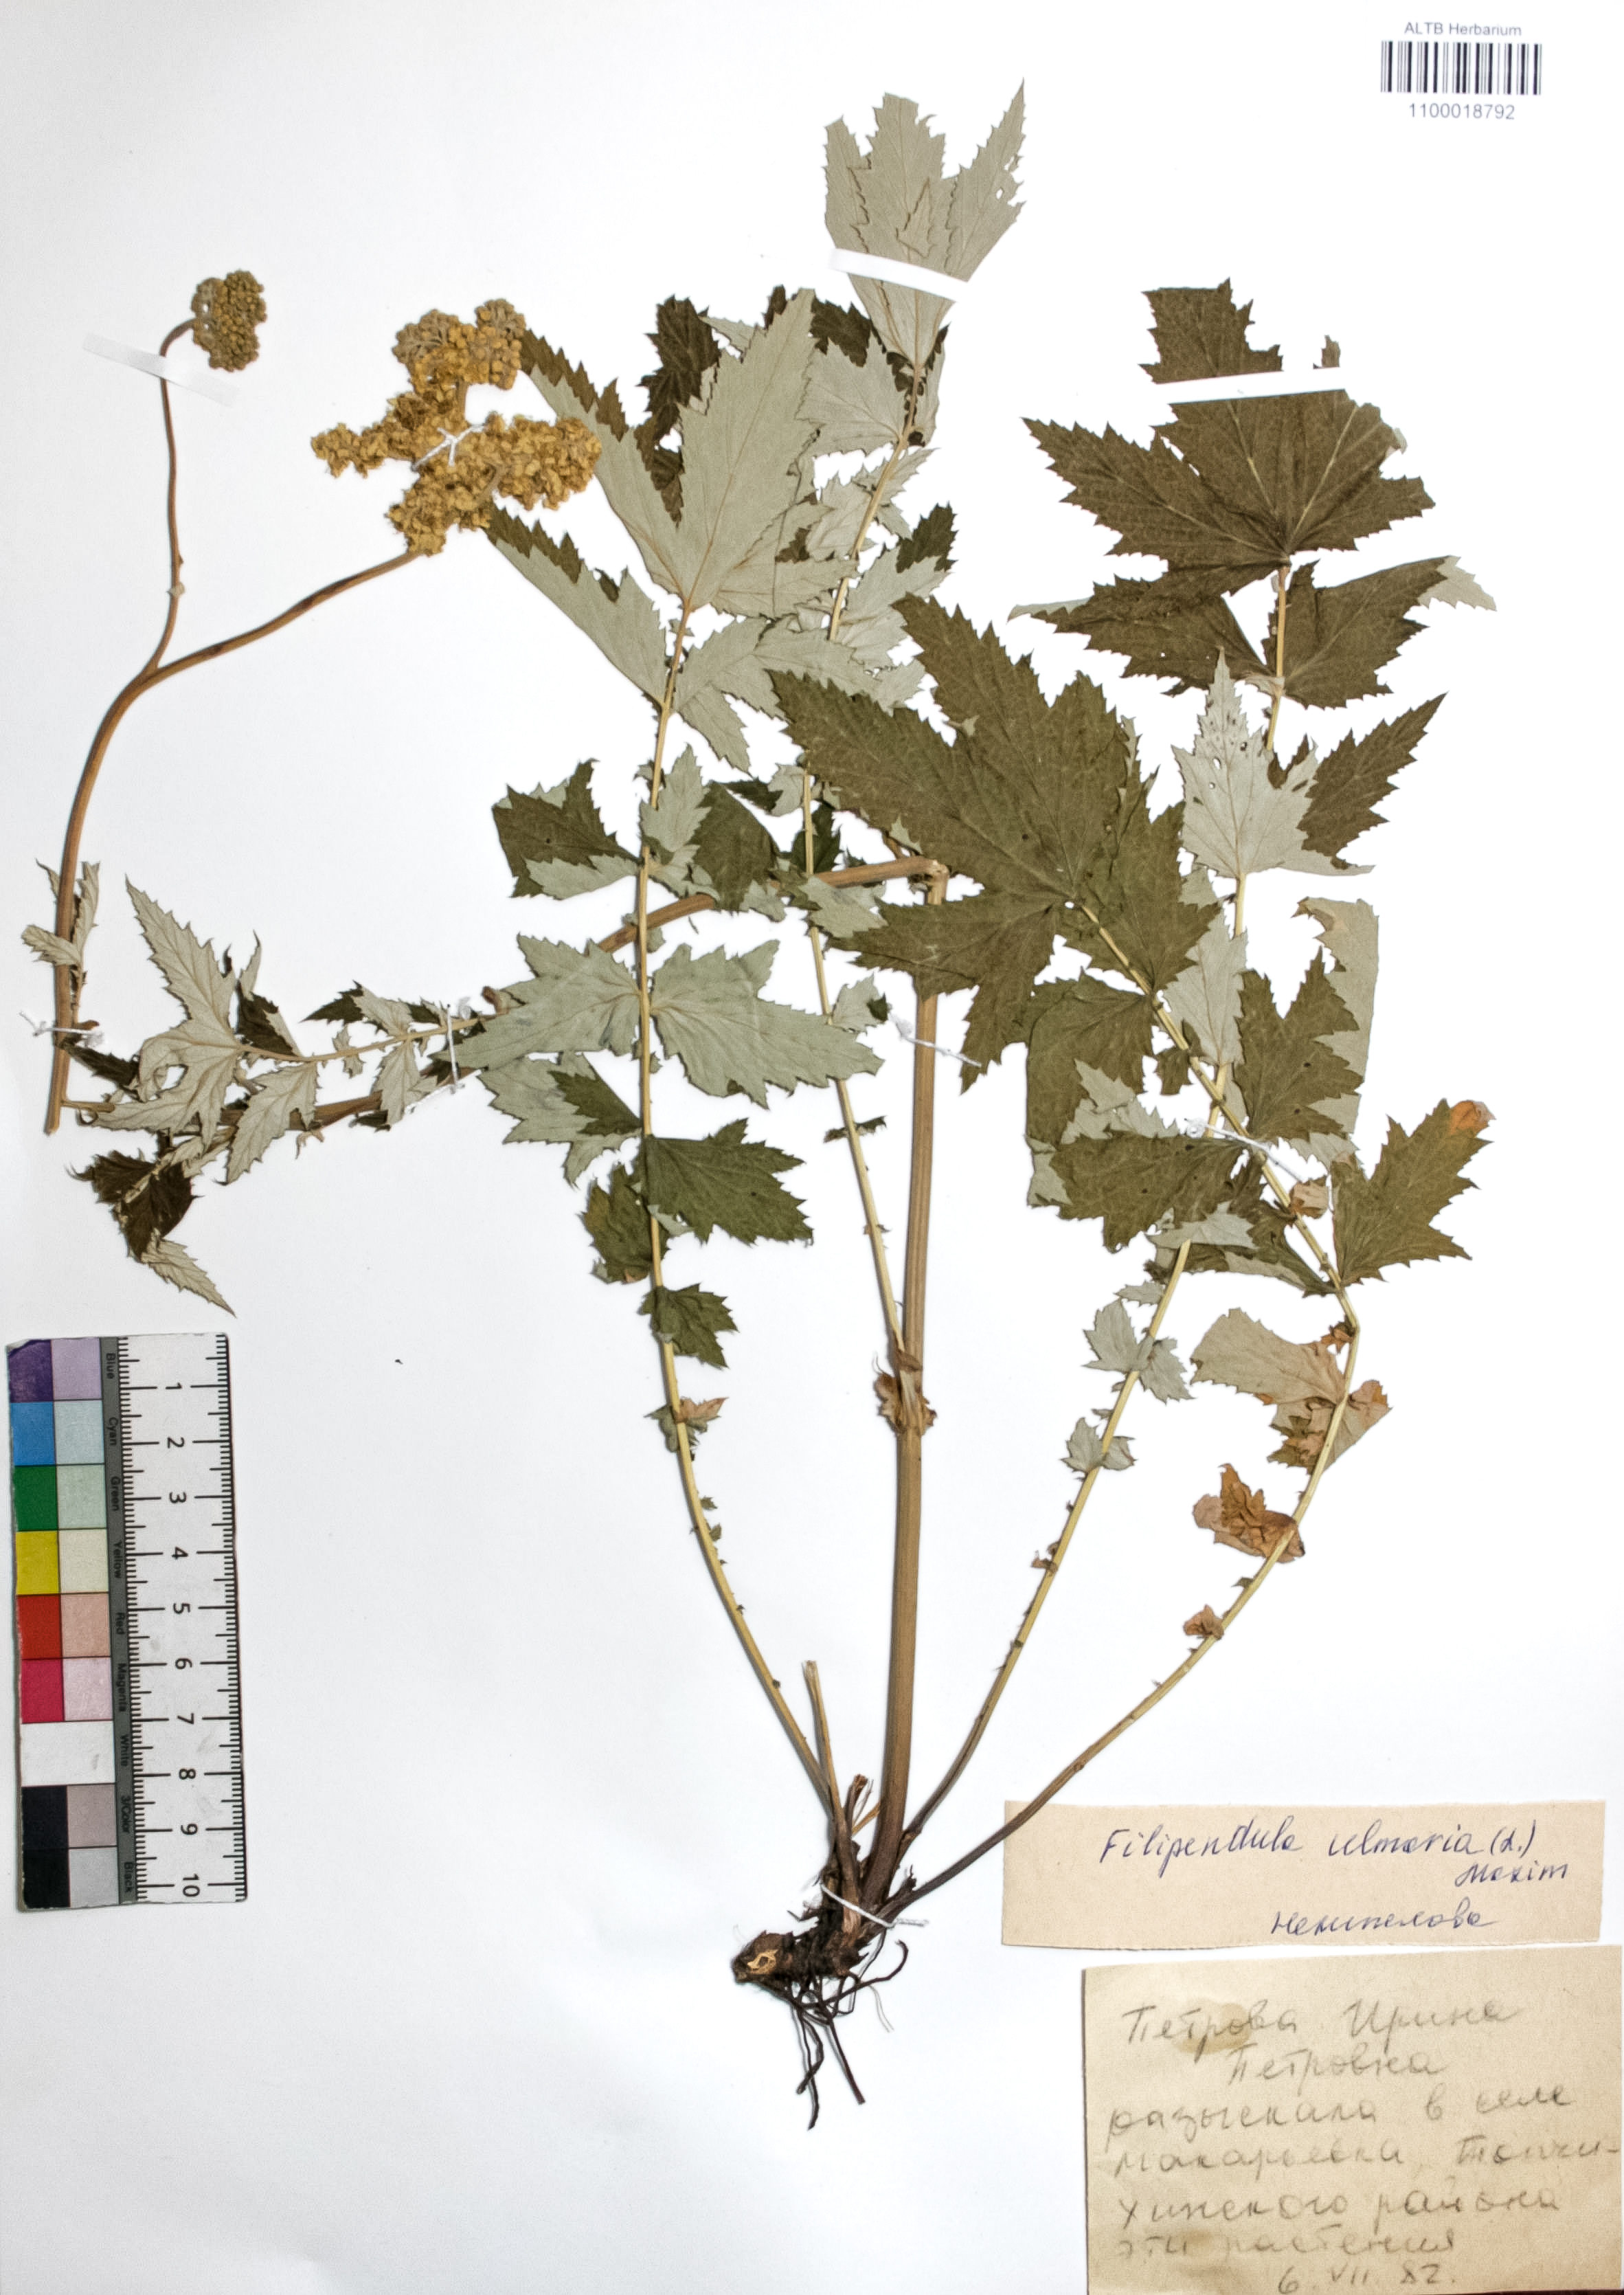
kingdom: Plantae
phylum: Tracheophyta
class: Magnoliopsida
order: Rosales
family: Rosaceae
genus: Filipendula
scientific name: Filipendula ulmaria
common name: Meadowsweet
